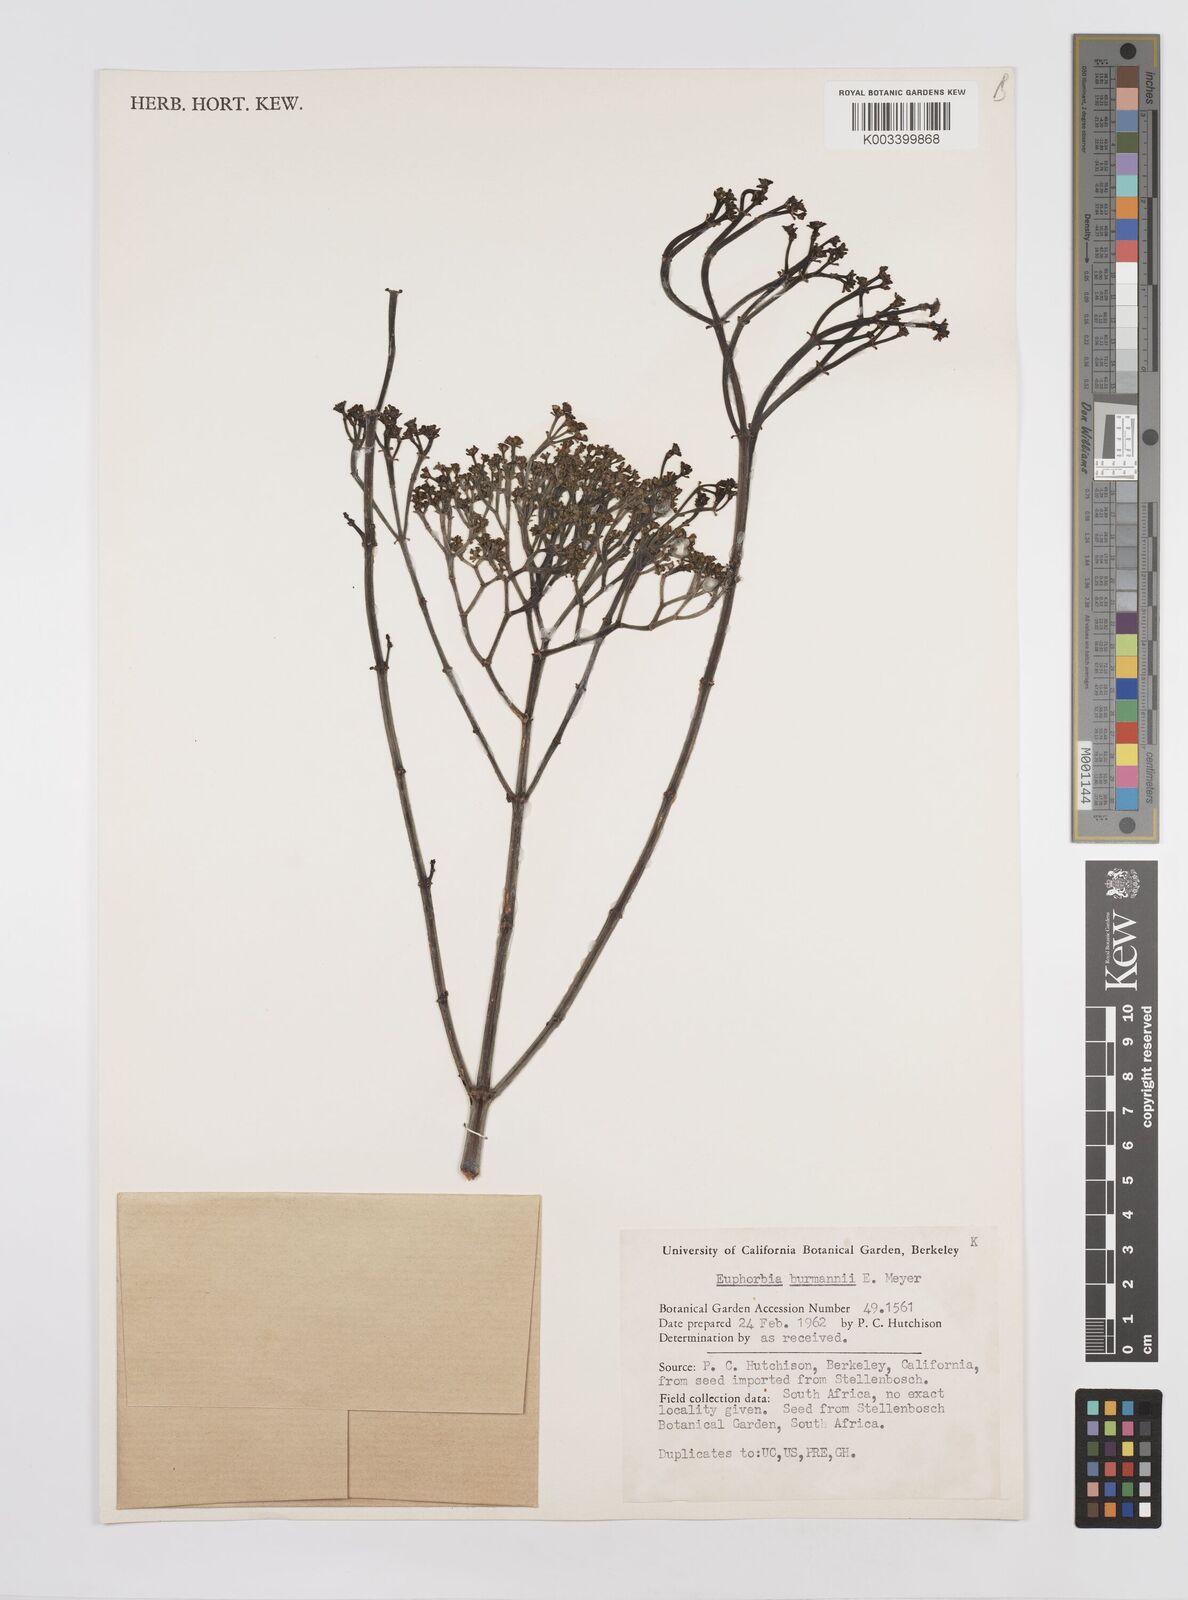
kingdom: Plantae
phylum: Tracheophyta
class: Magnoliopsida
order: Malpighiales
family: Euphorbiaceae
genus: Euphorbia
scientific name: Euphorbia eriantha
